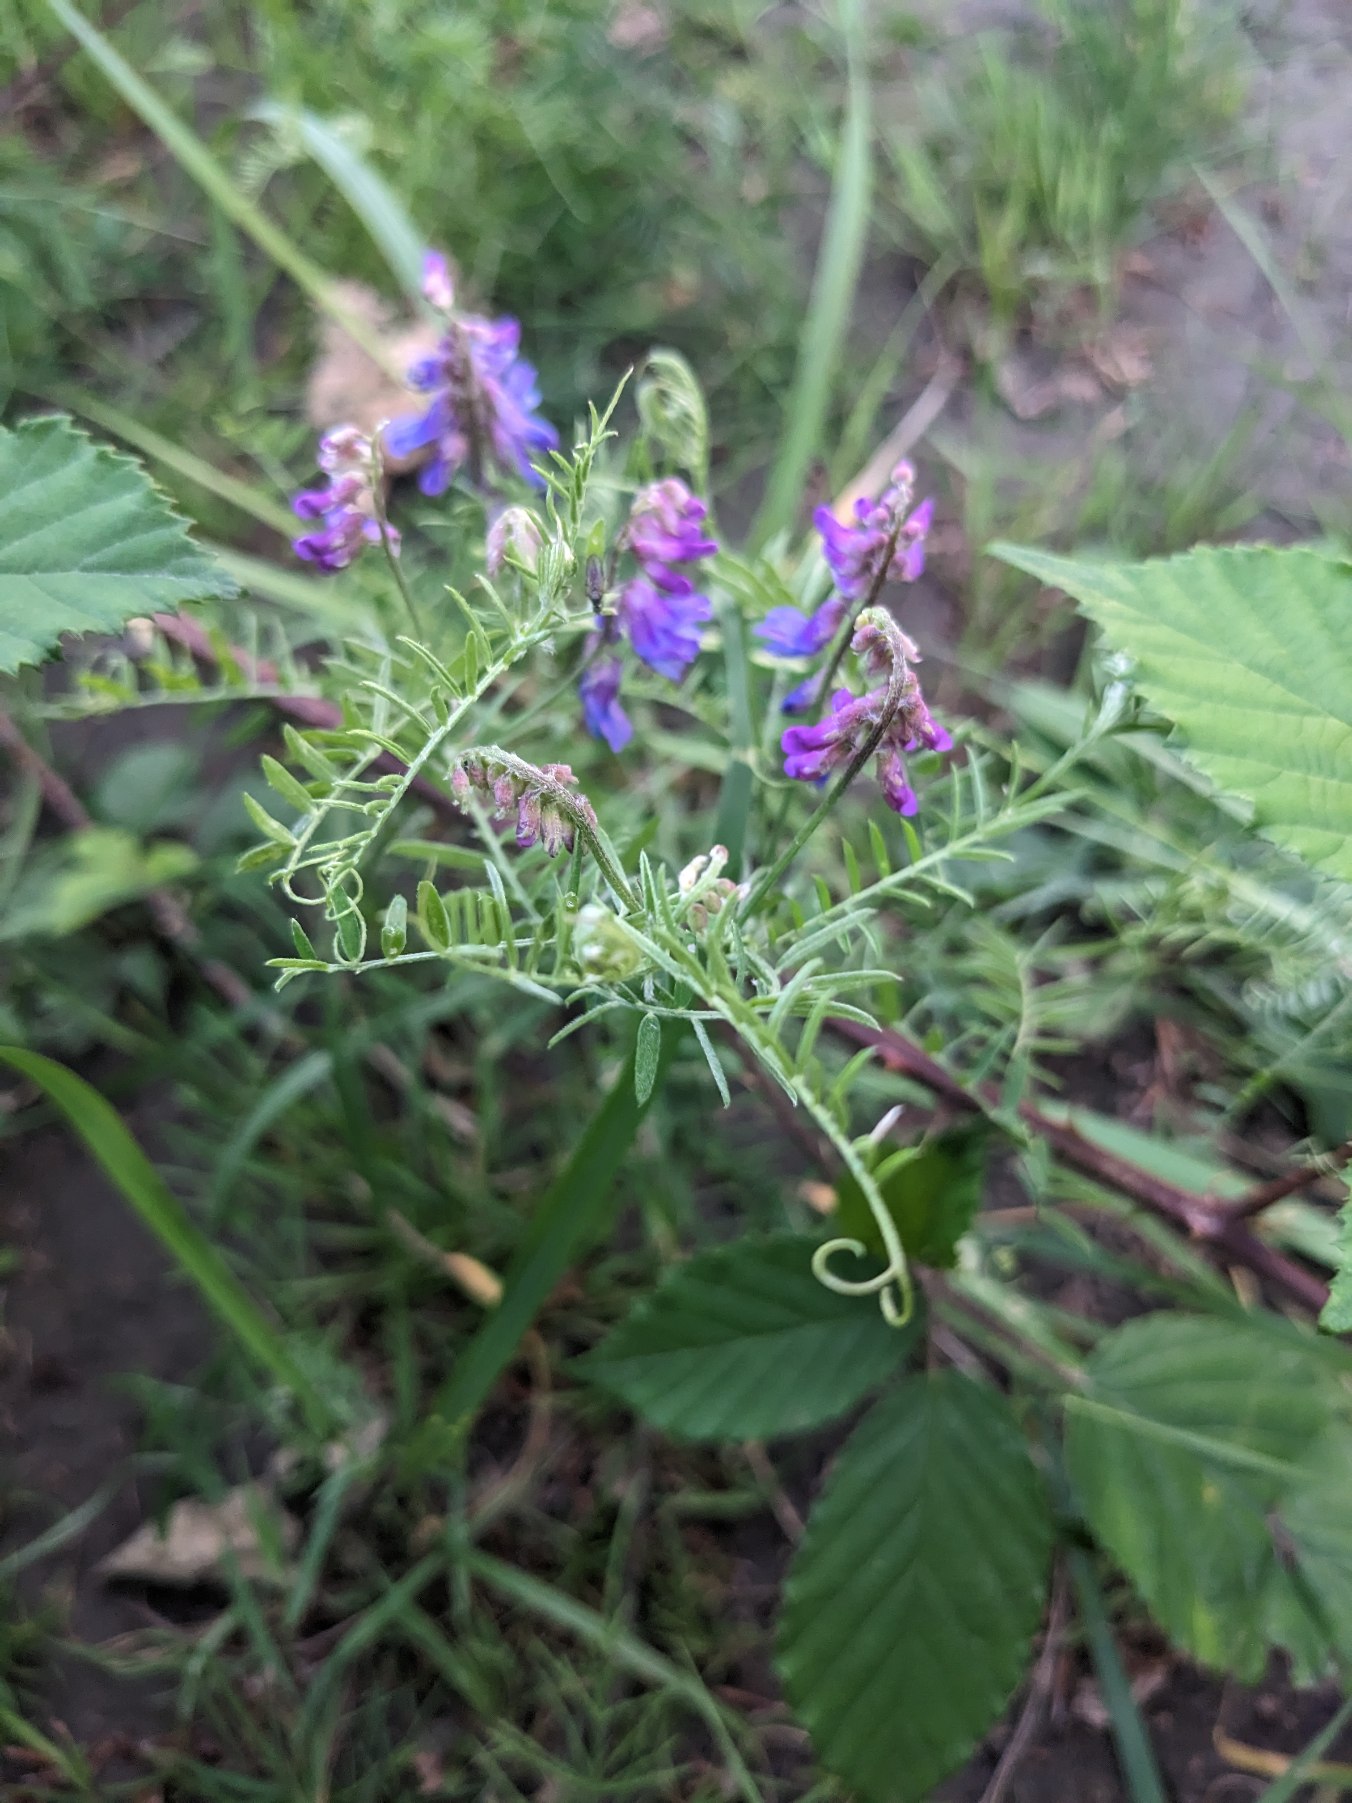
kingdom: Plantae
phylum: Tracheophyta
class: Magnoliopsida
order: Fabales
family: Fabaceae
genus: Vicia
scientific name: Vicia cracca
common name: Muse-vikke
